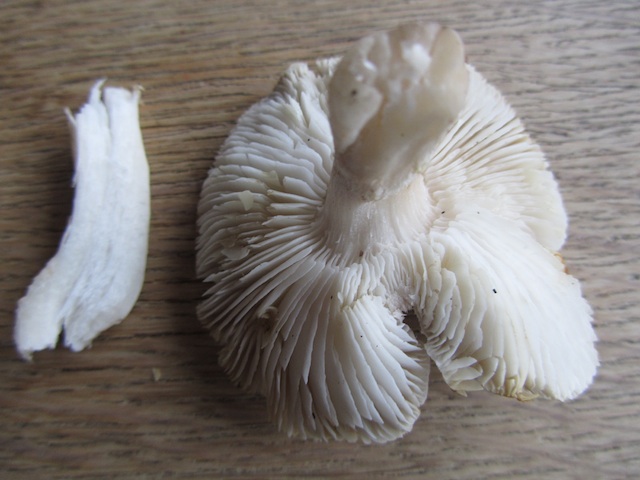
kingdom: Fungi
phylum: Basidiomycota
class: Agaricomycetes
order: Agaricales
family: Tricholomataceae
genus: Tricholoma
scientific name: Tricholoma scalpturatum
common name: gulplettet ridderhat
